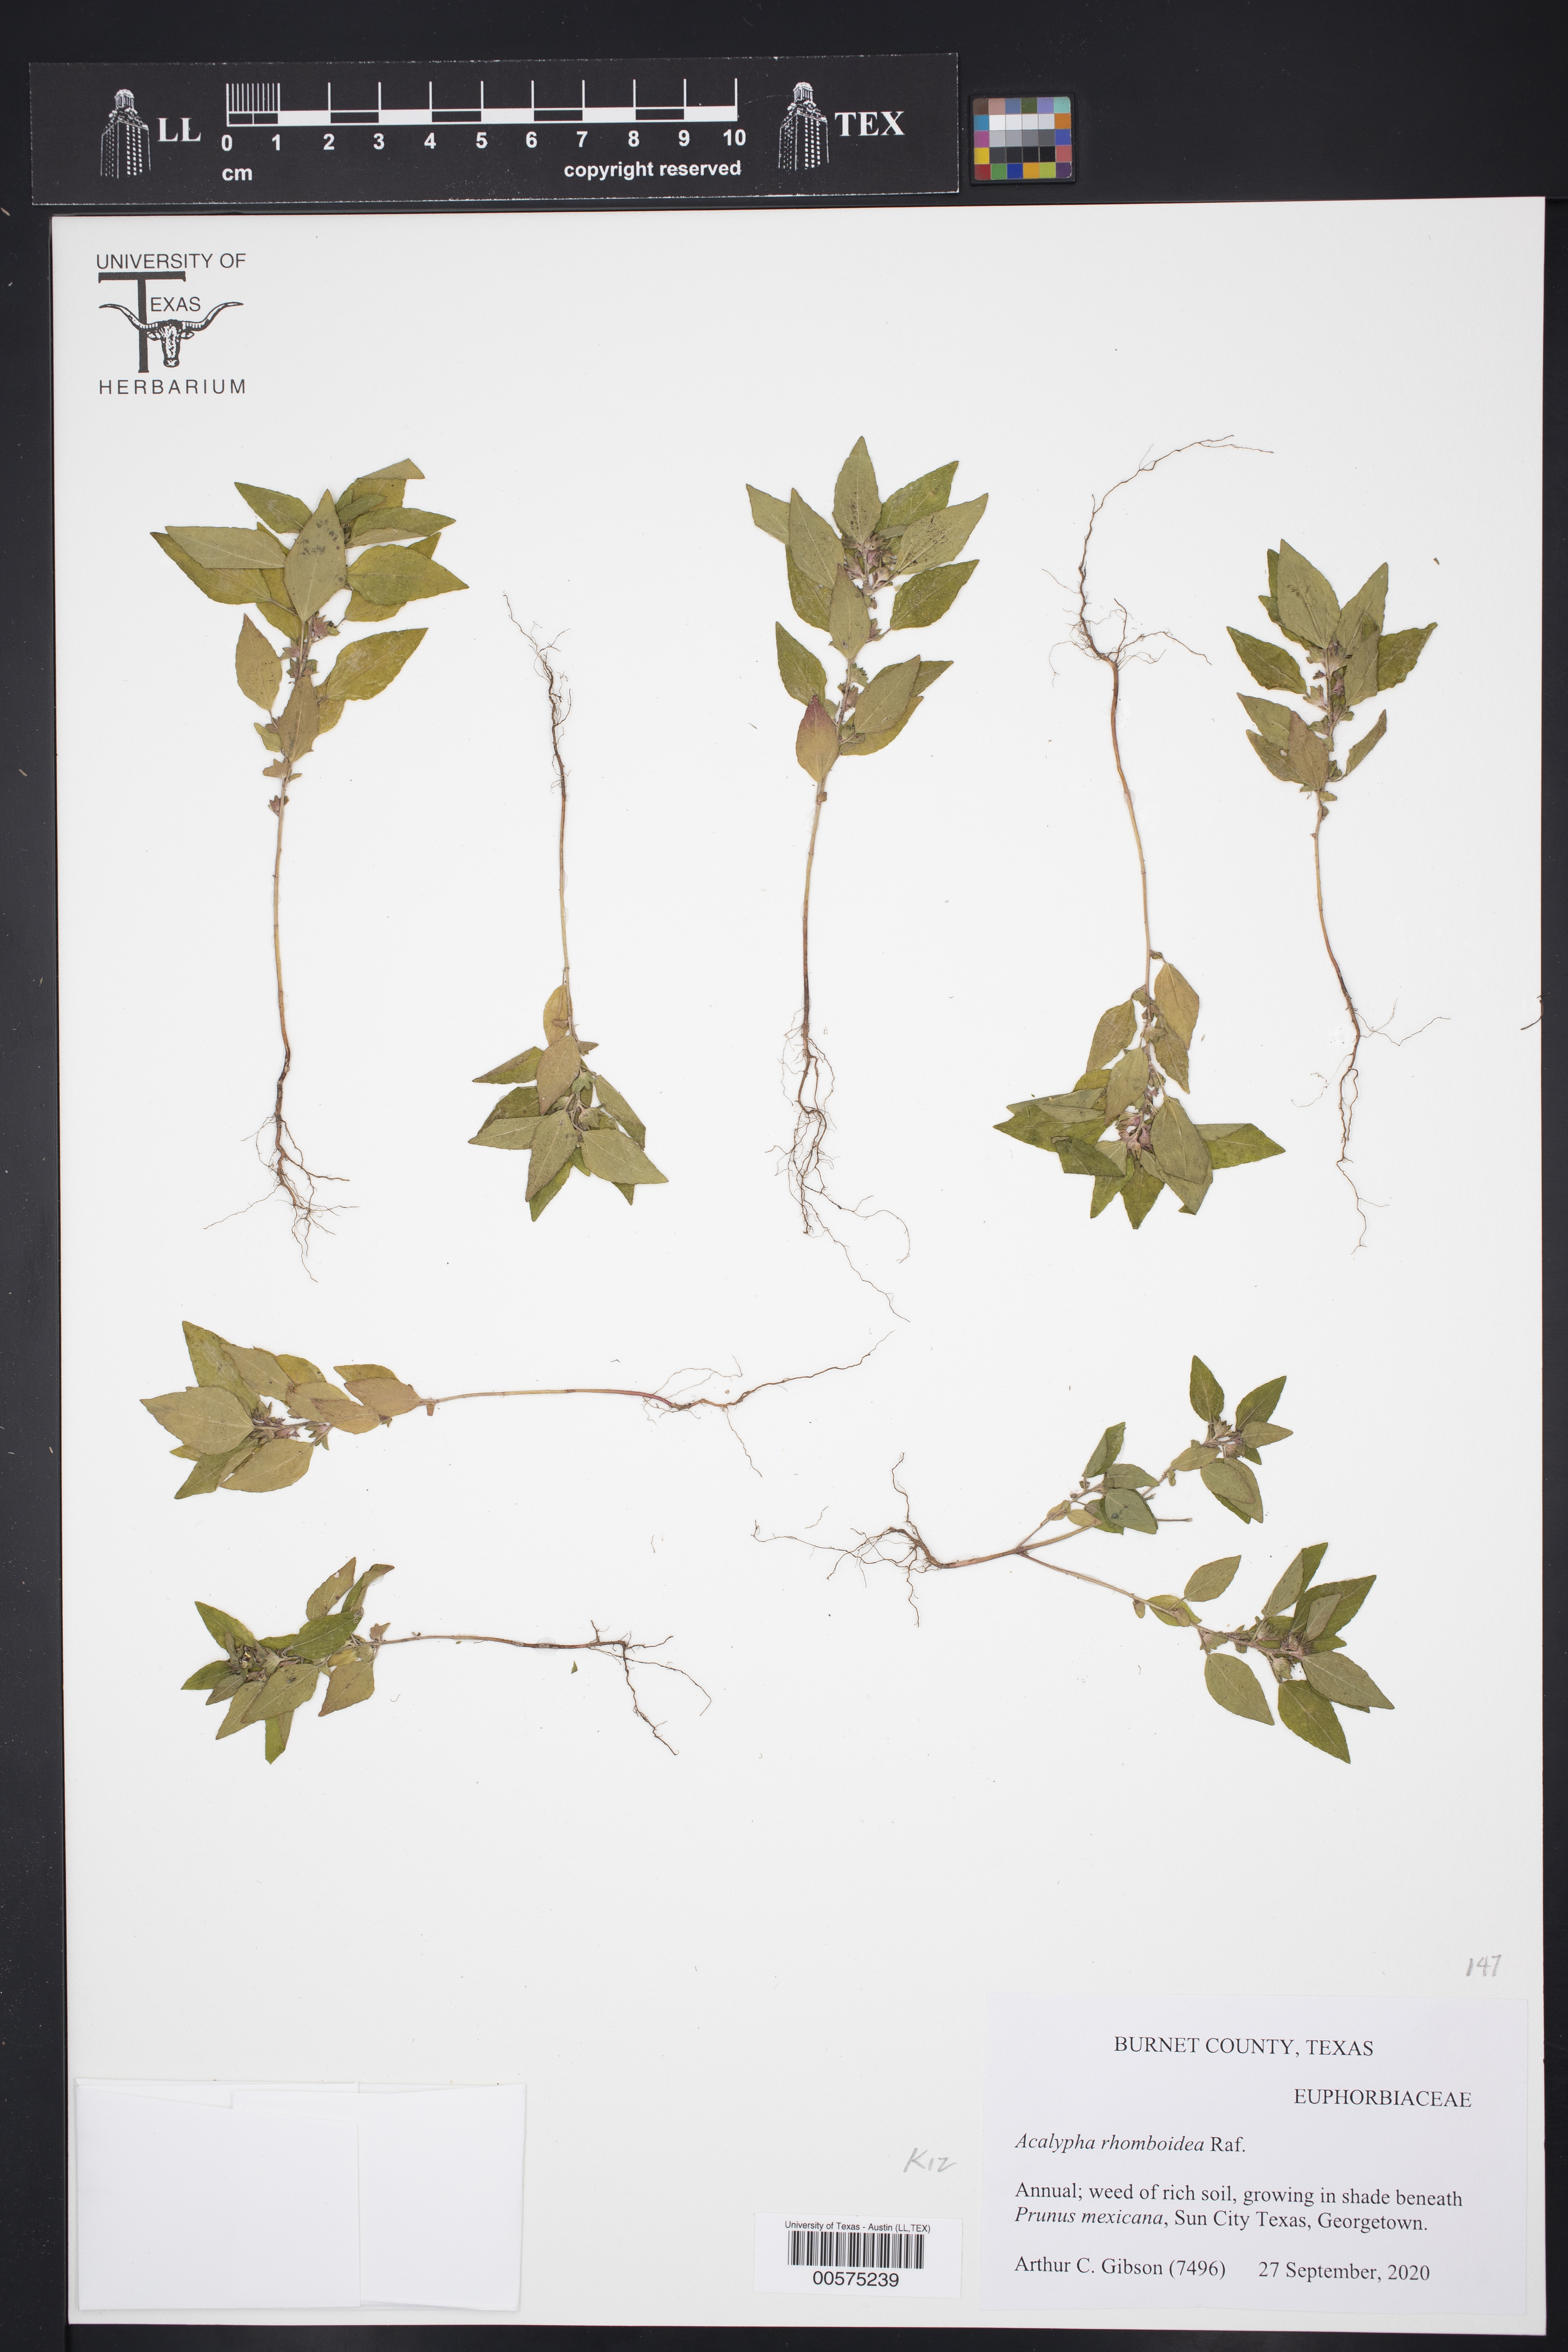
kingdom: Plantae
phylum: Tracheophyta
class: Magnoliopsida
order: Malpighiales
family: Euphorbiaceae
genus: Acalypha
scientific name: Acalypha rhomboidea
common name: Rhombic copperleaf
